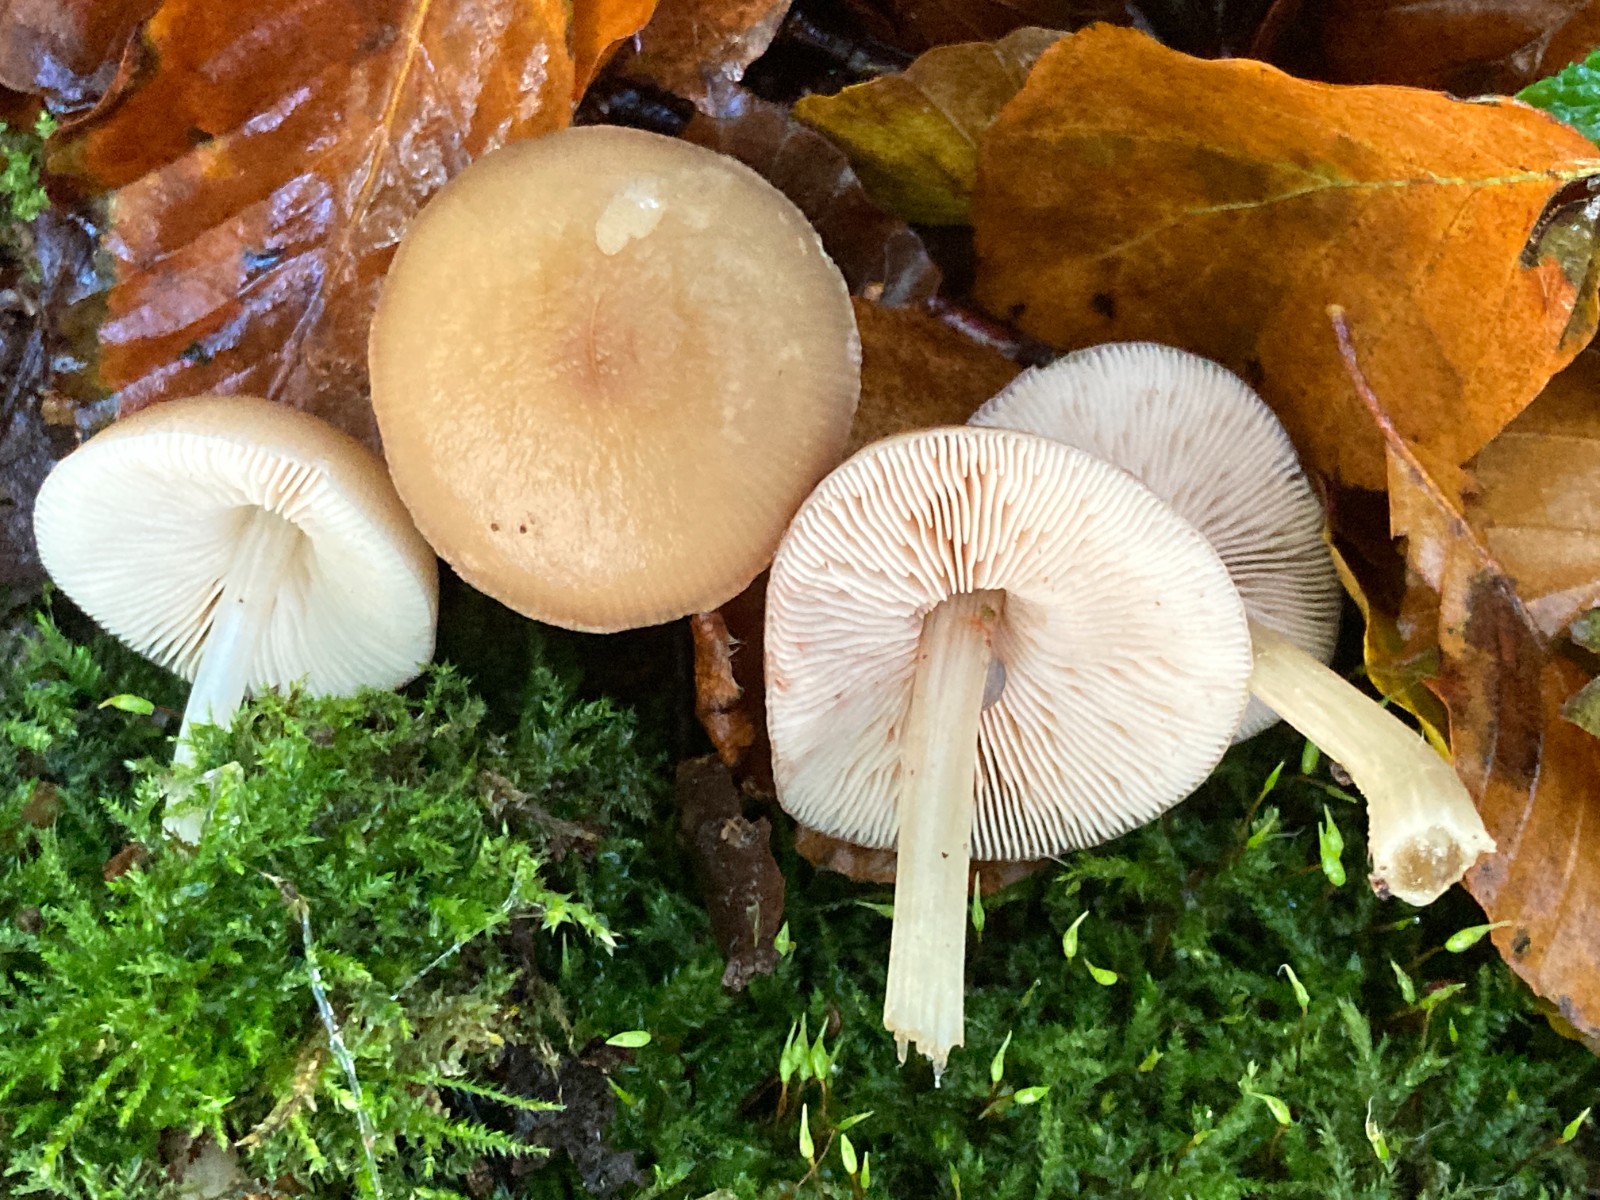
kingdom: Fungi
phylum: Basidiomycota
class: Agaricomycetes
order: Agaricales
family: Pluteaceae
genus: Pluteus
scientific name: Pluteus phlebophorus
